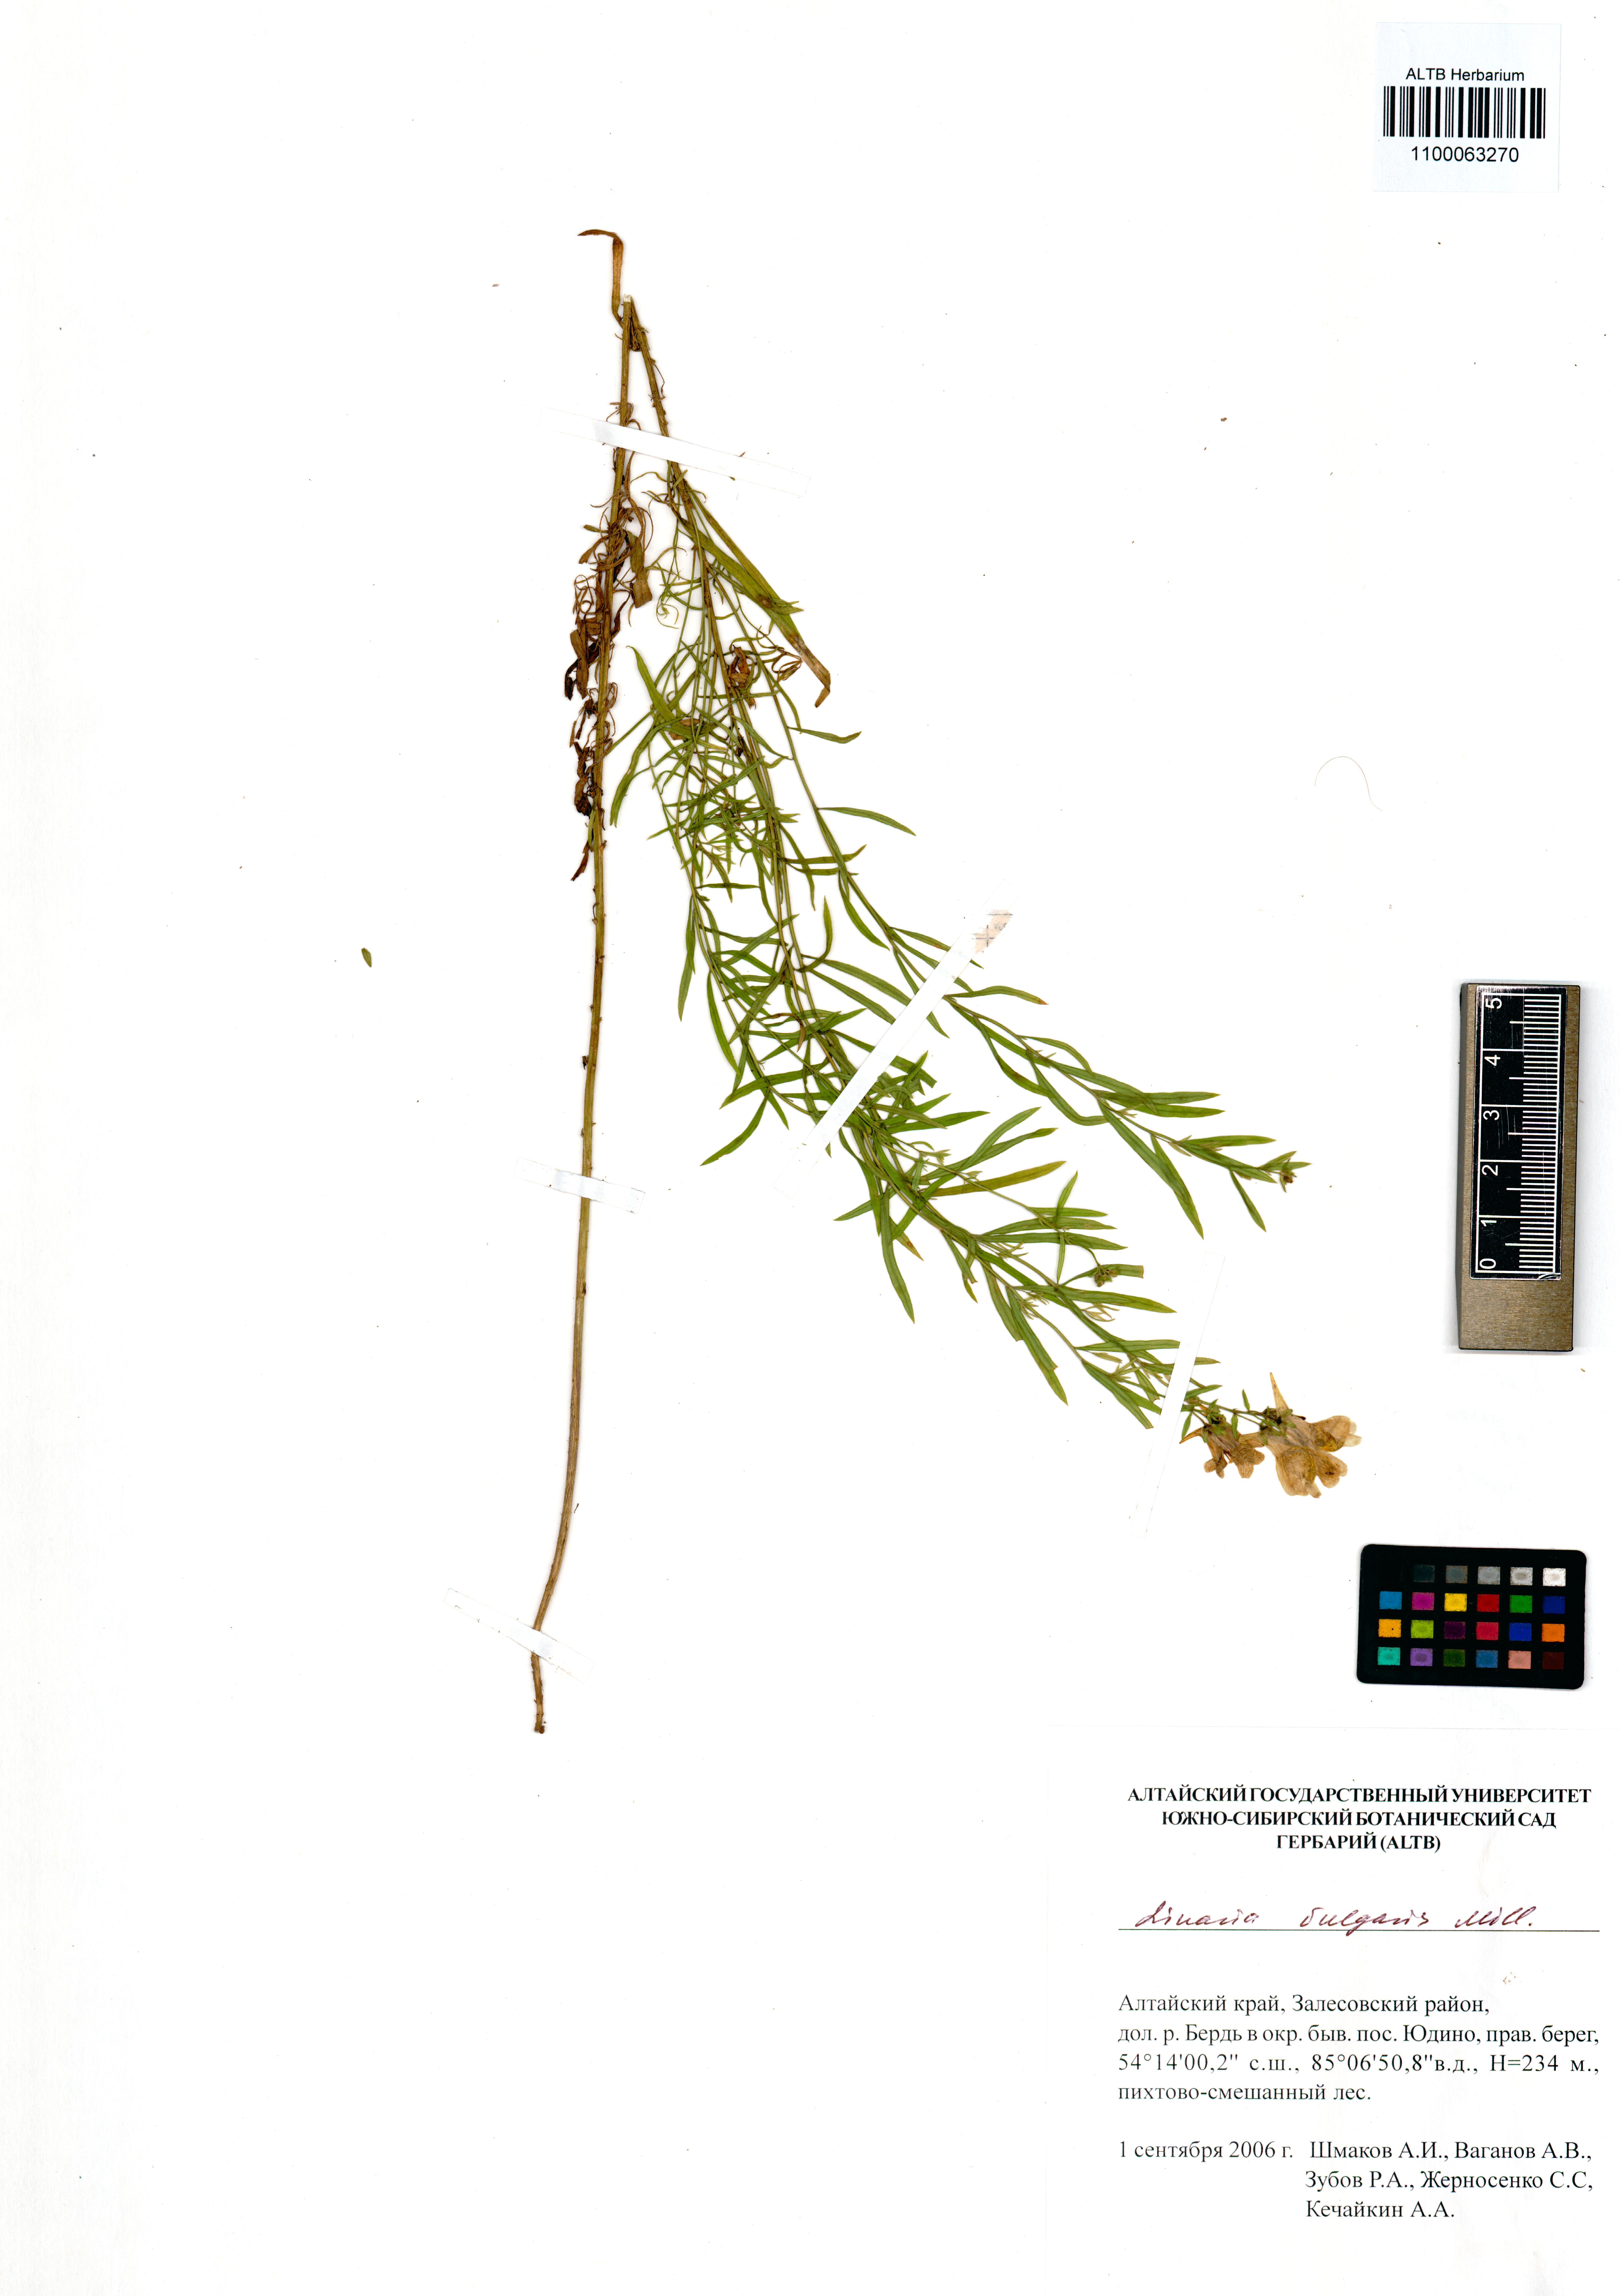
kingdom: Plantae
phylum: Tracheophyta
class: Magnoliopsida
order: Lamiales
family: Plantaginaceae
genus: Linaria
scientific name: Linaria vulgaris
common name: Butter and eggs
